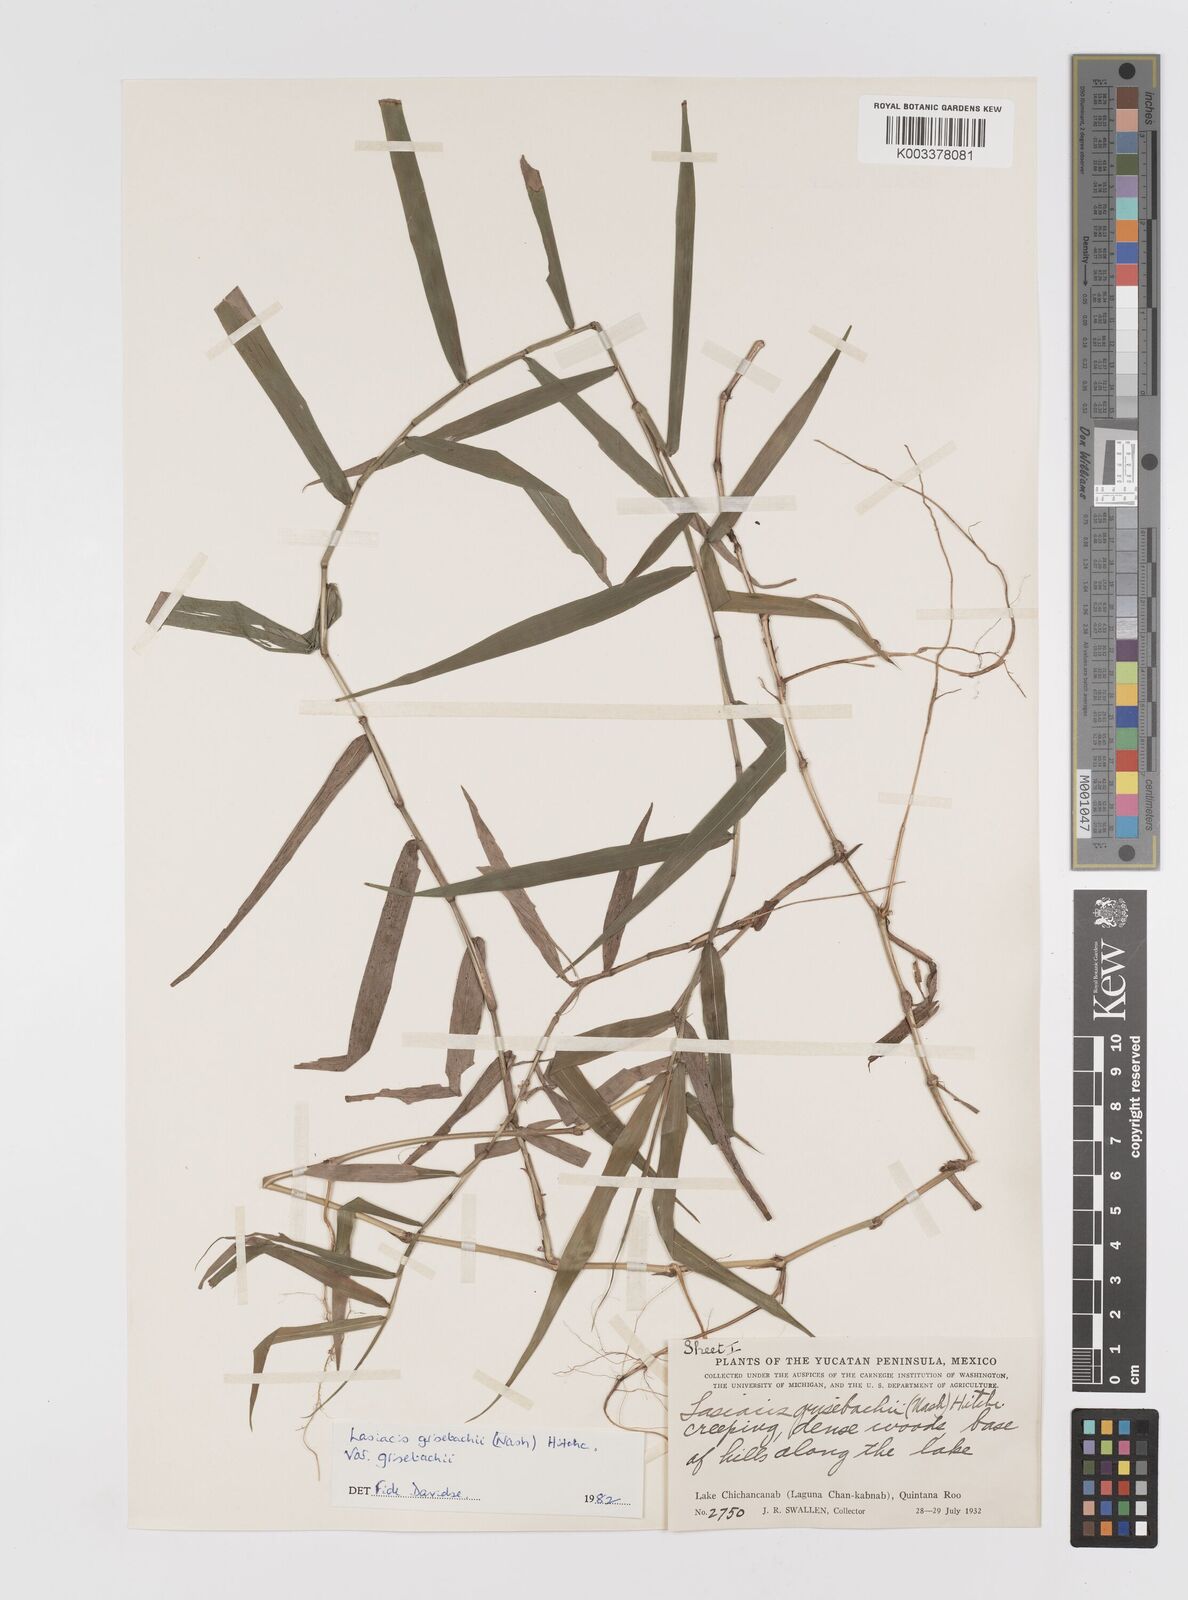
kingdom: Plantae
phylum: Tracheophyta
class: Liliopsida
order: Poales
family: Poaceae
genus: Lasiacis
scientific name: Lasiacis grisebachii
